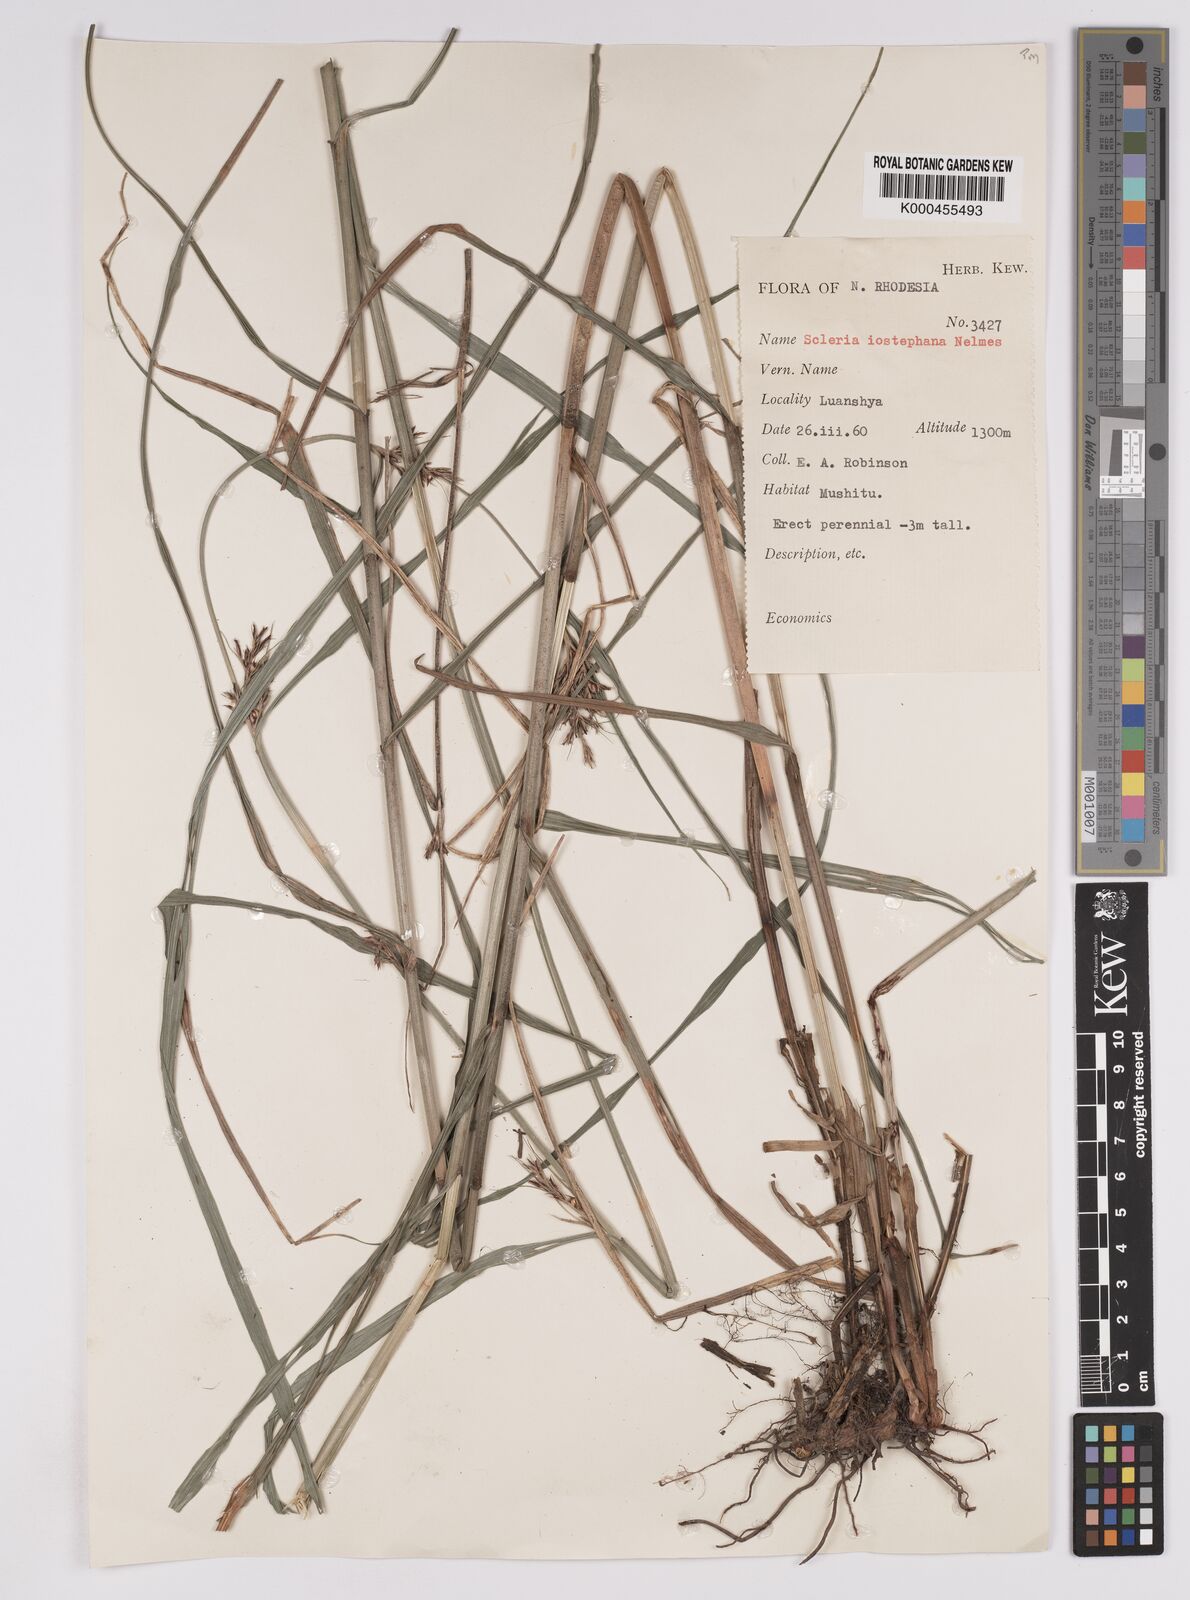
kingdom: Plantae
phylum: Tracheophyta
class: Liliopsida
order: Poales
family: Cyperaceae
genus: Scleria
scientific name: Scleria iostephana
